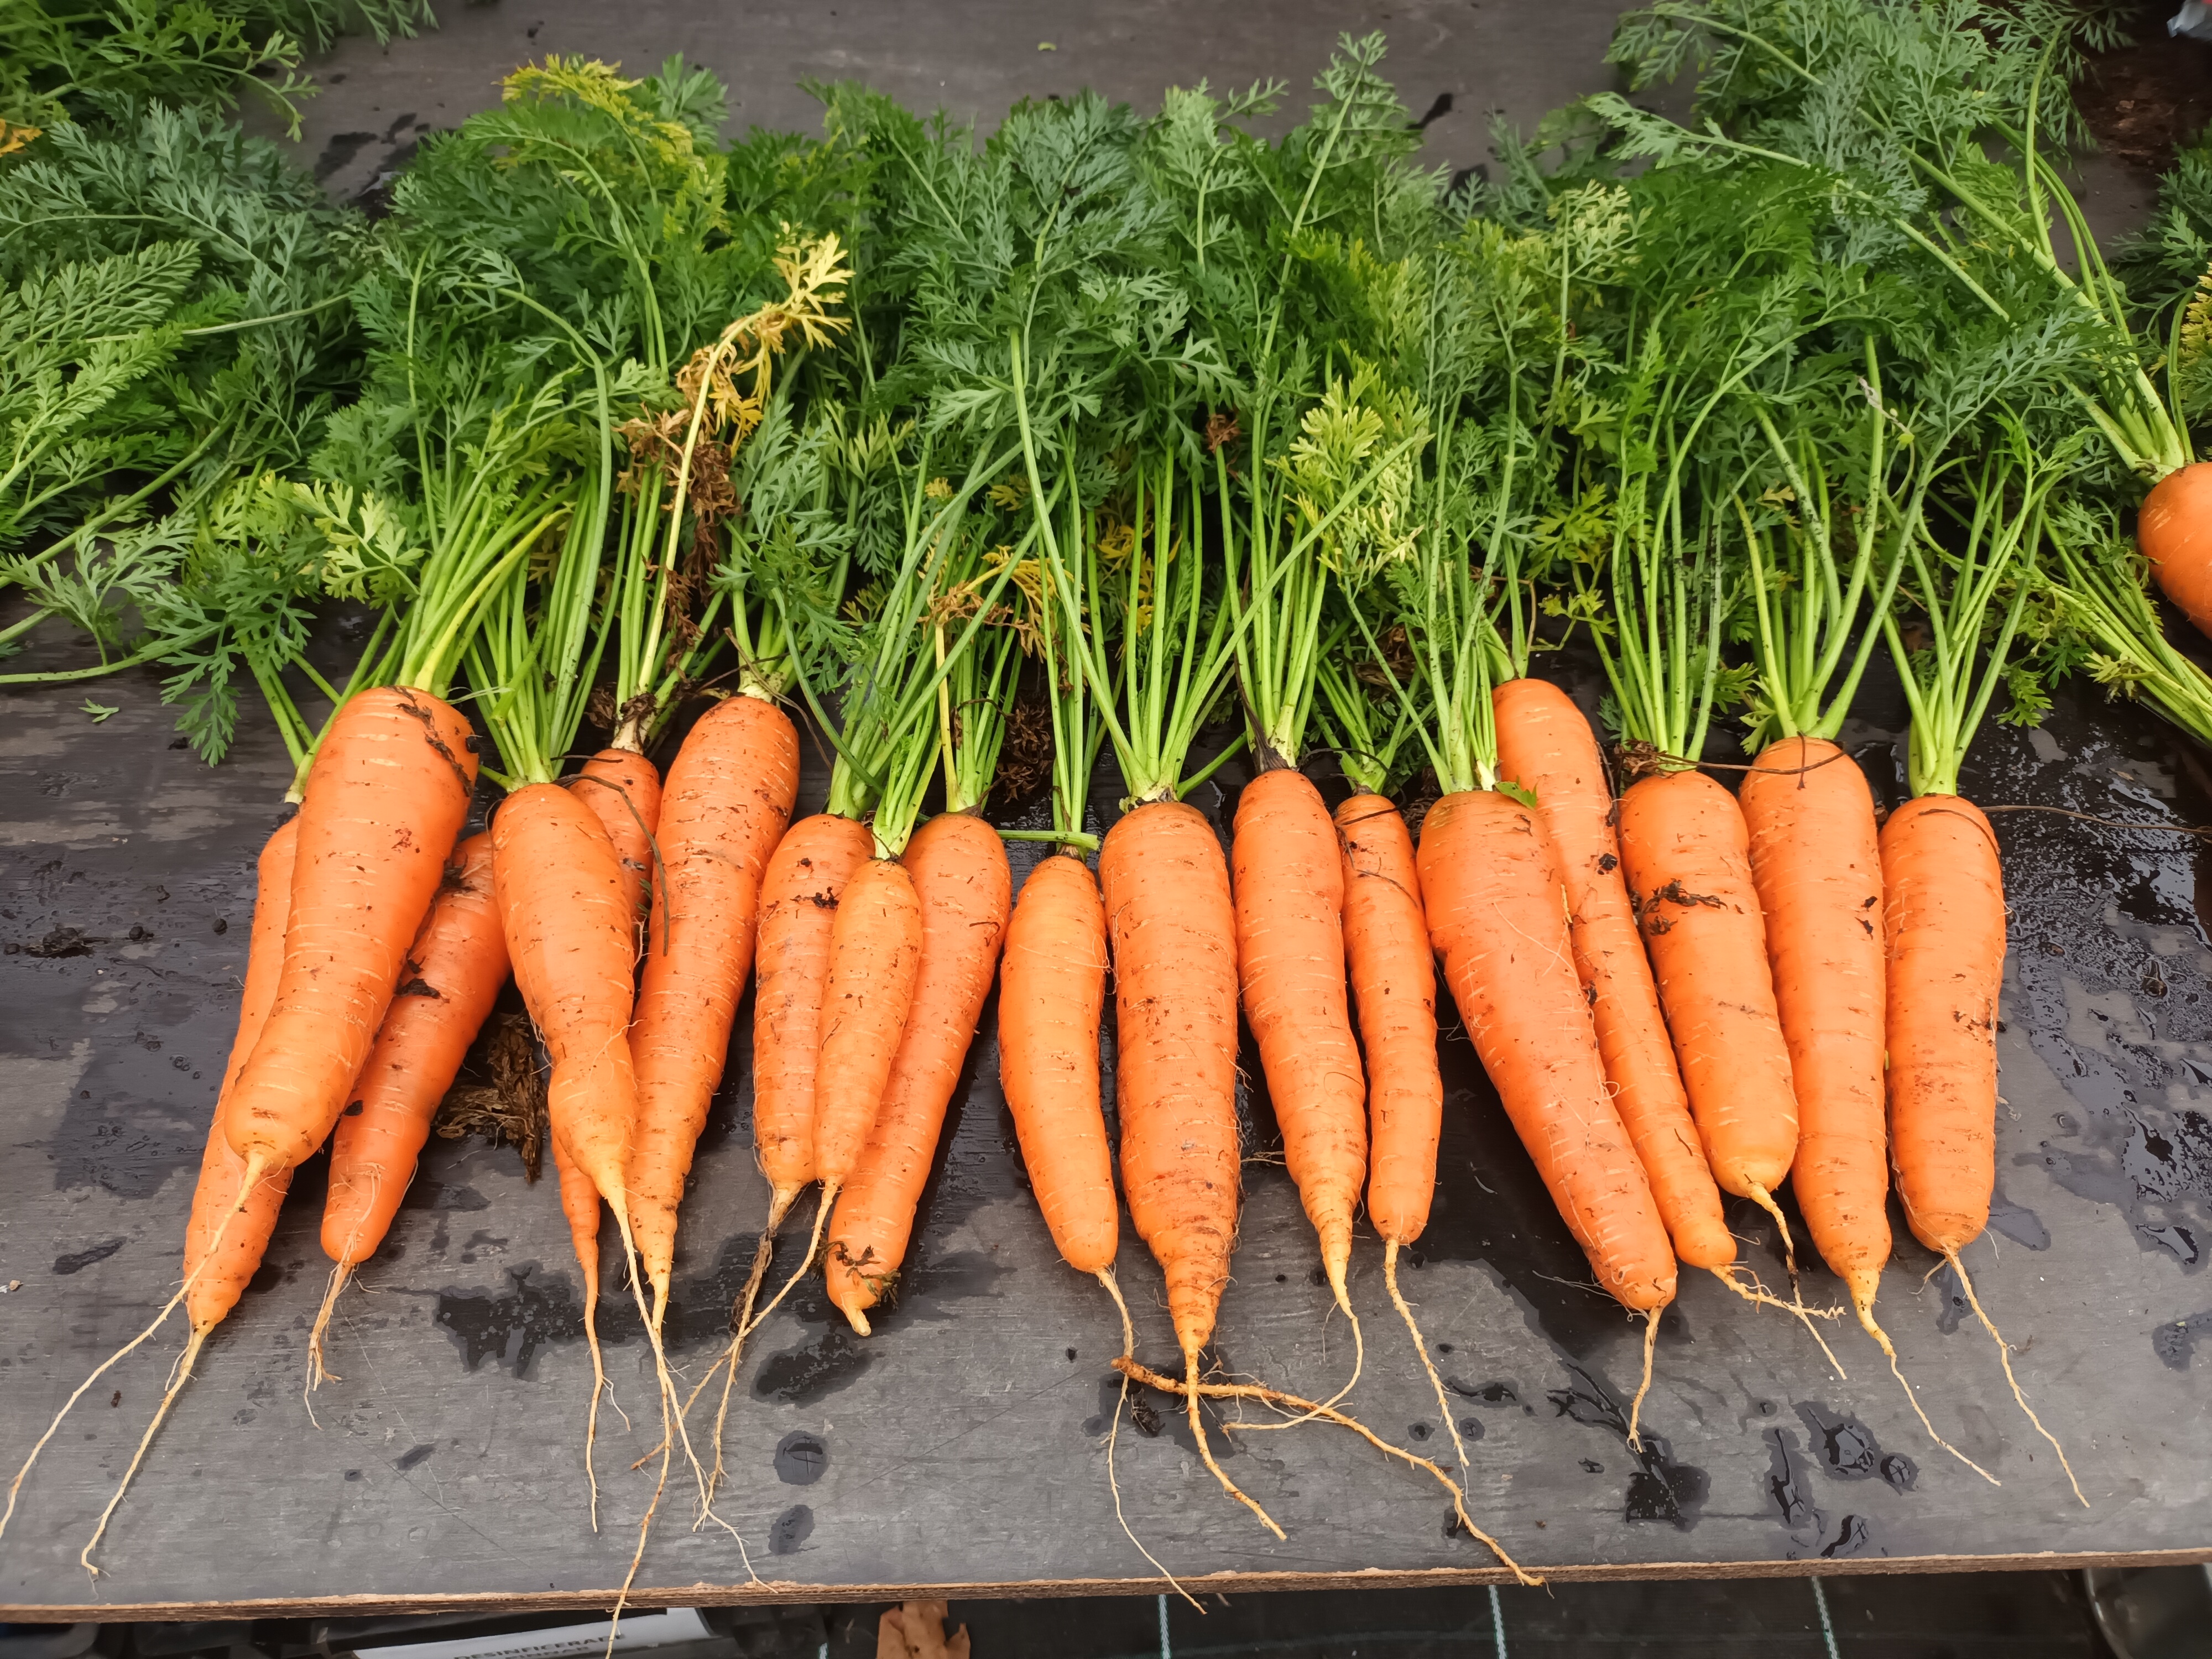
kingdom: Plantae
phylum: Tracheophyta
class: Magnoliopsida
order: Apiales
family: Apiaceae
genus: Daucus
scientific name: Daucus carota
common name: Wild carrot
